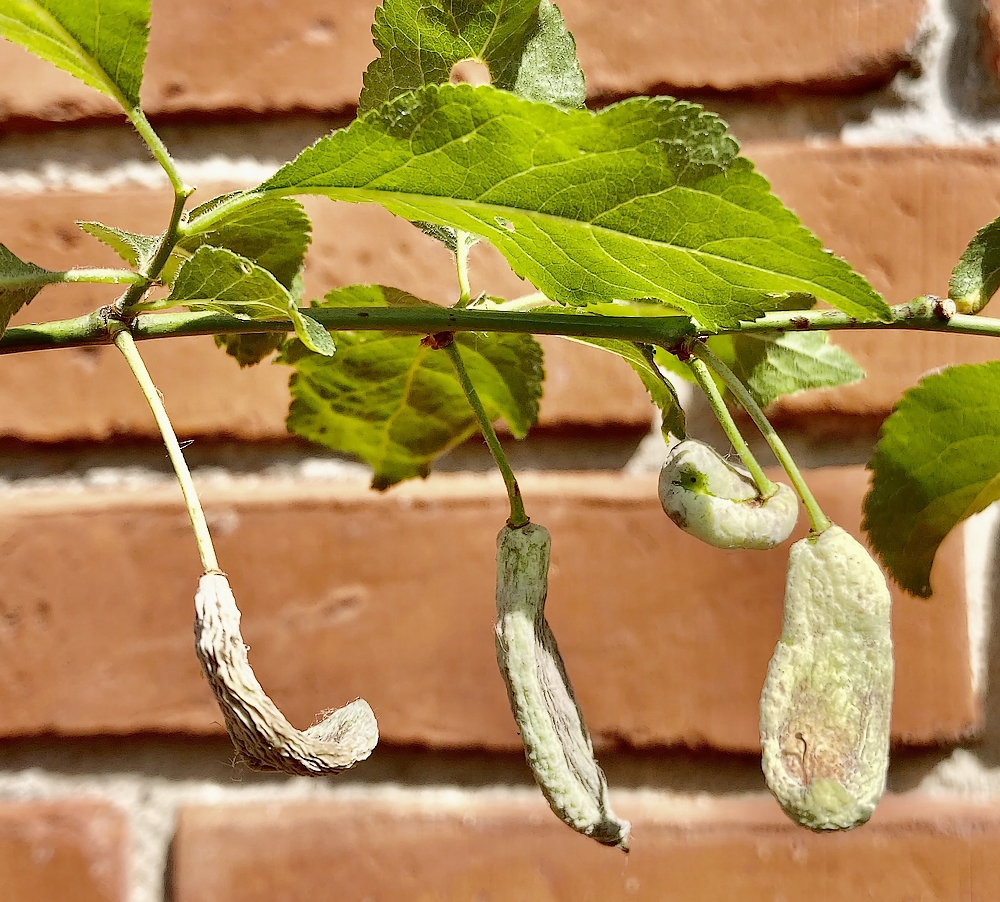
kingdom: Fungi
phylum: Ascomycota
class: Taphrinomycetes
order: Taphrinales
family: Taphrinaceae
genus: Taphrina
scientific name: Taphrina pruni
